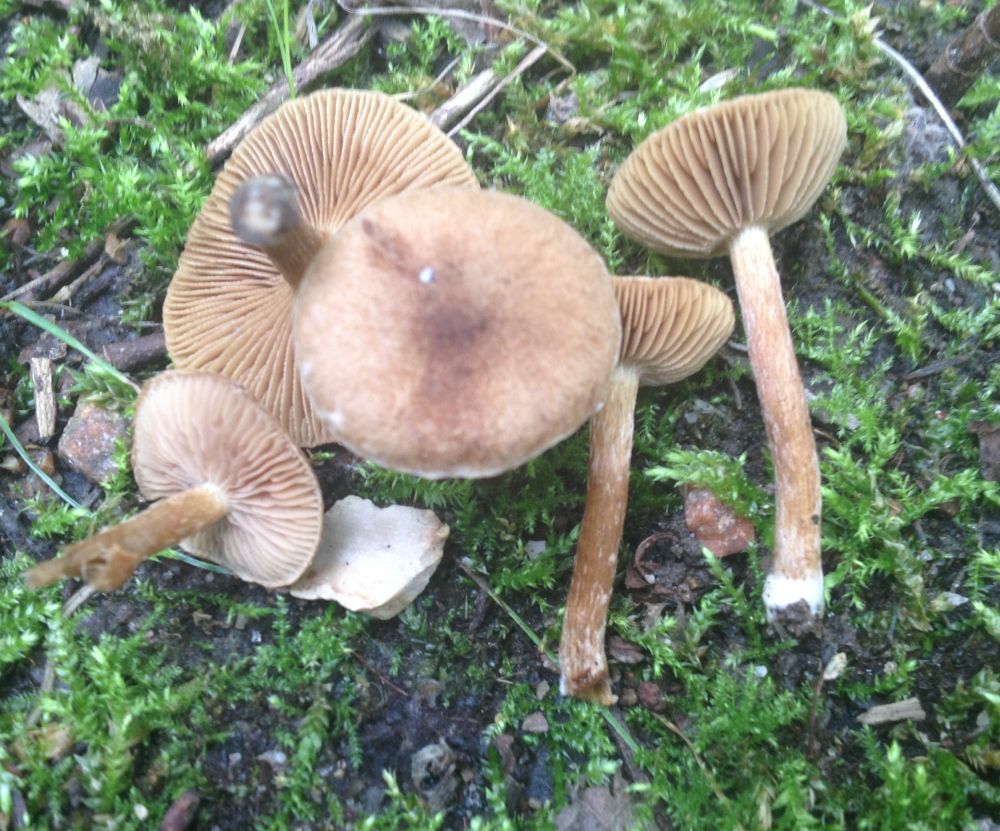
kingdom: Fungi
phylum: Basidiomycota
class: Agaricomycetes
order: Agaricales
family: Inocybaceae
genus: Mallocybe
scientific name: Mallocybe
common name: Trævlhat
